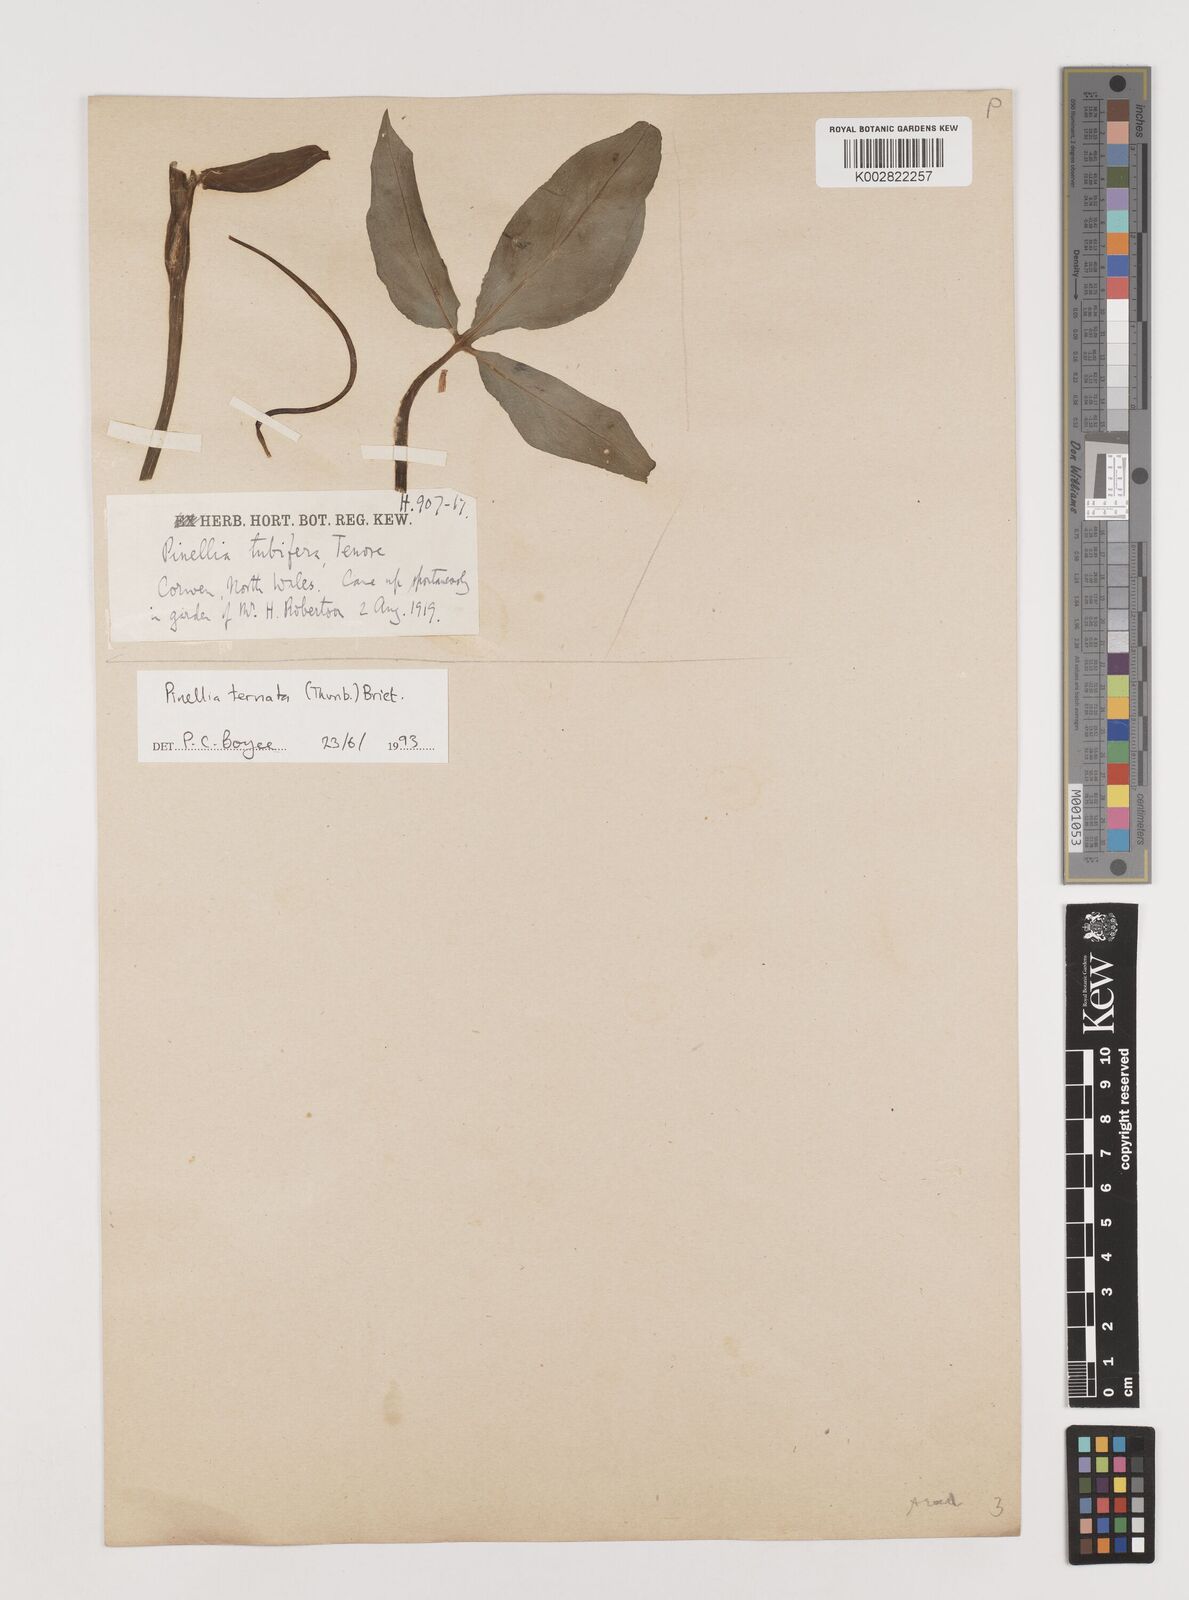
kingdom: Plantae
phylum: Tracheophyta
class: Liliopsida
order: Alismatales
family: Araceae
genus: Pinellia
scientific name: Pinellia ternata
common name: Pinellia
